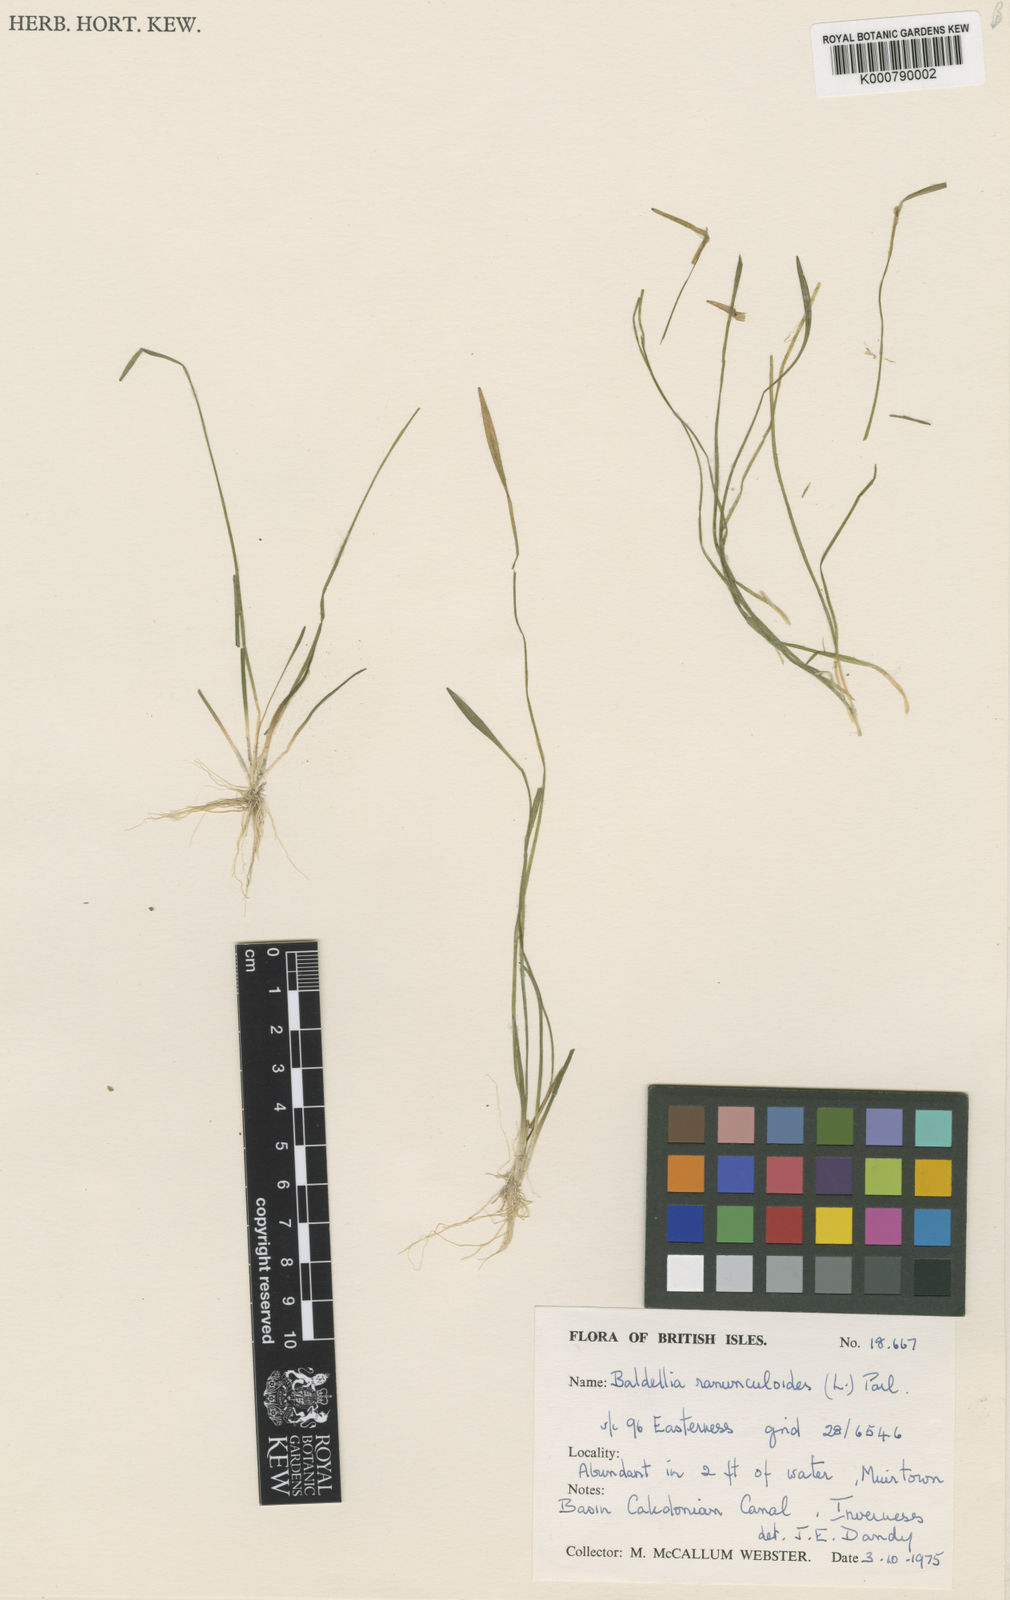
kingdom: Plantae
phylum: Tracheophyta
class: Liliopsida
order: Alismatales
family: Alismataceae
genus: Baldellia
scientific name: Baldellia ranunculoides
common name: Lesser water-plantain
